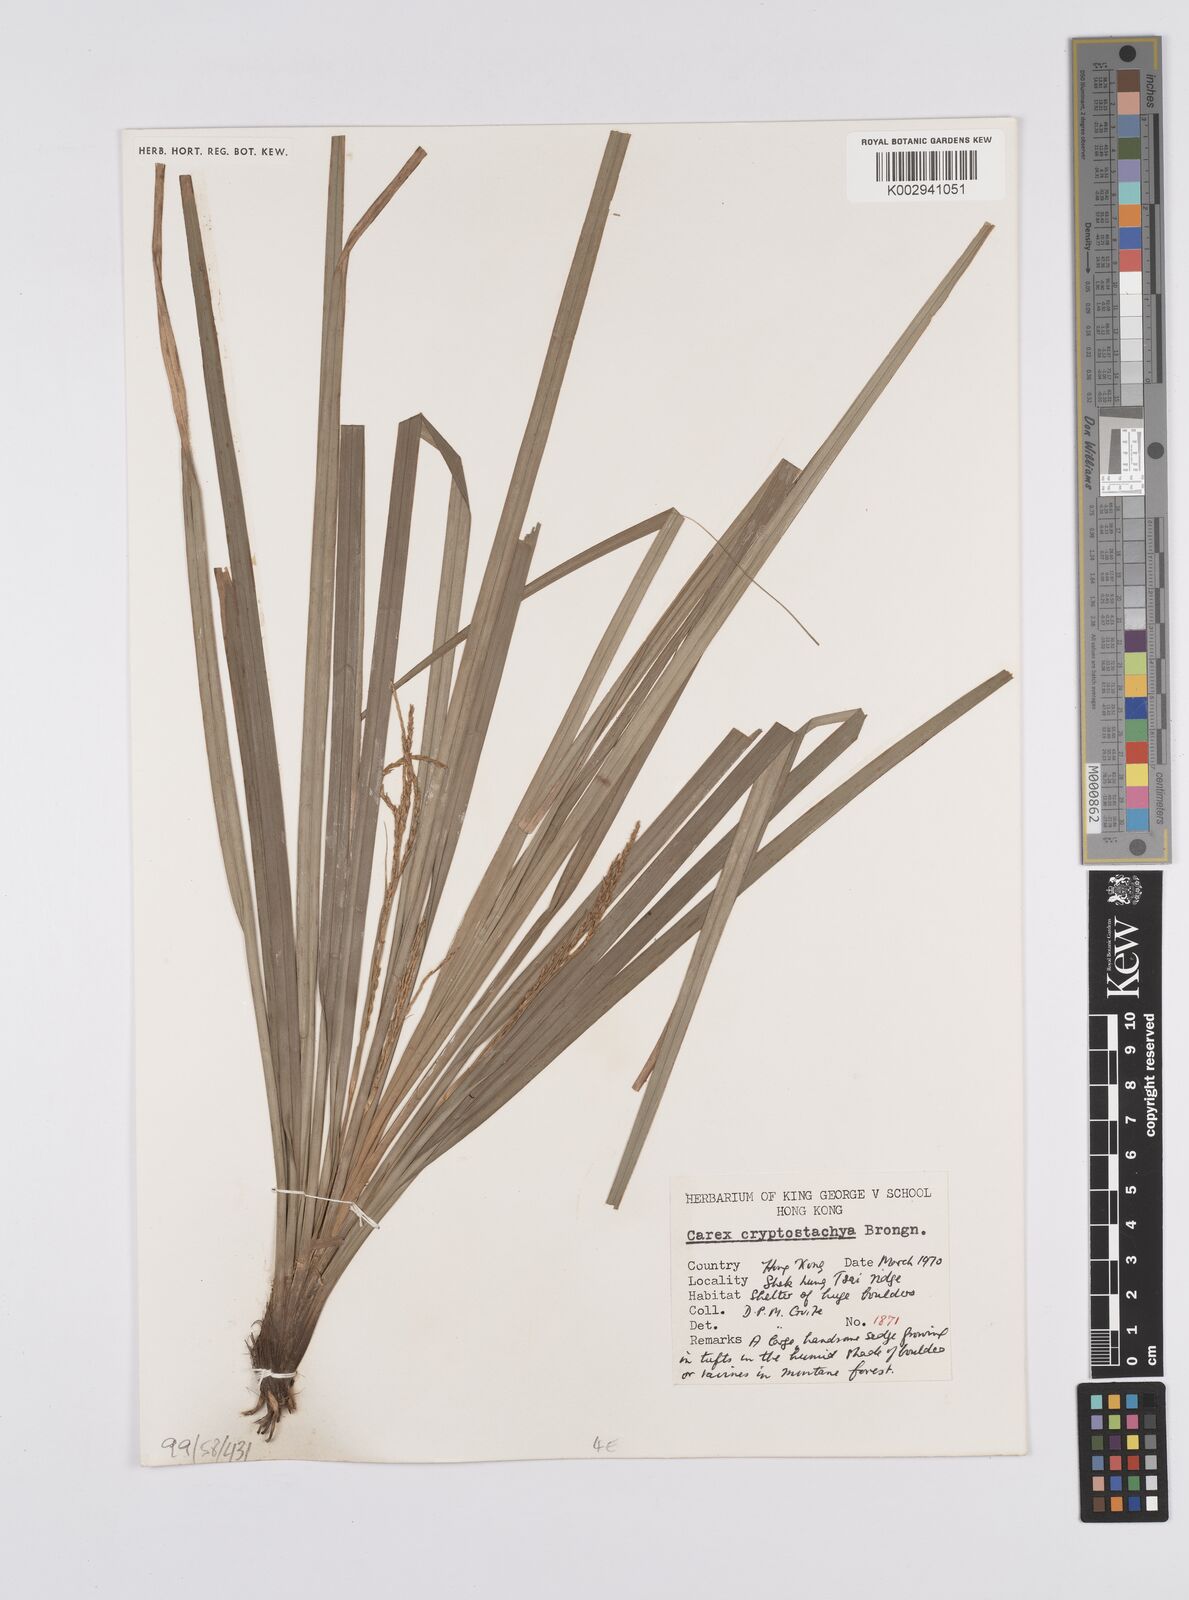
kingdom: Plantae
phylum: Tracheophyta
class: Liliopsida
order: Poales
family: Cyperaceae
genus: Carex
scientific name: Carex cryptostachys
